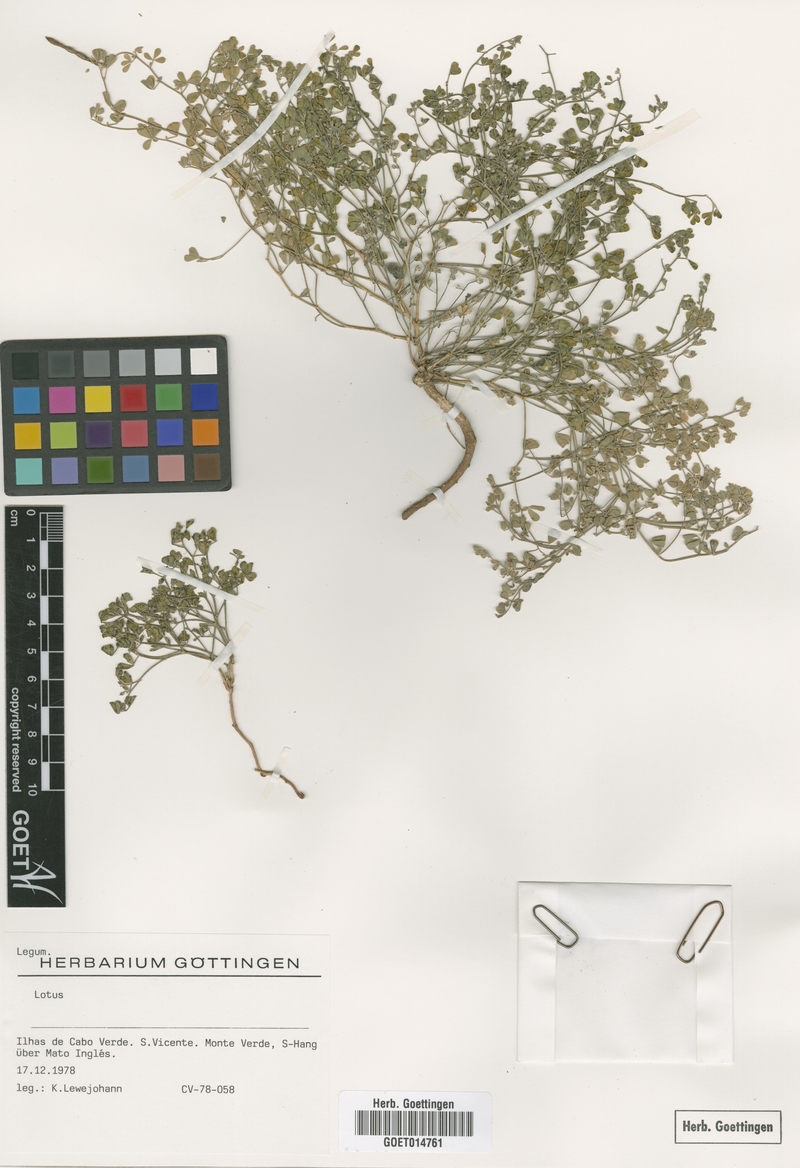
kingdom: Plantae
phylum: Tracheophyta
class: Magnoliopsida
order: Fabales
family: Fabaceae
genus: Lotus
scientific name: Lotus
